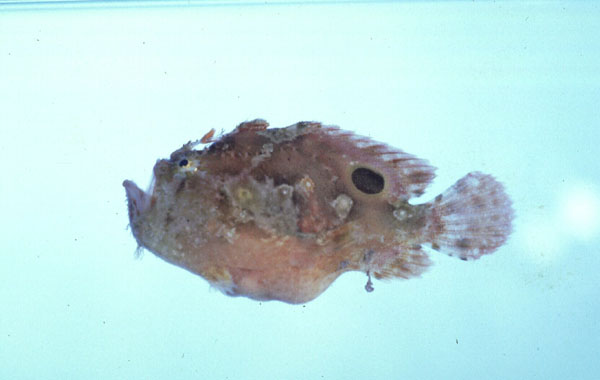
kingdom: Animalia
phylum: Chordata
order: Lophiiformes
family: Antennariidae
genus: Antennatus
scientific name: Antennatus nummifer
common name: Spotfin frogfish
